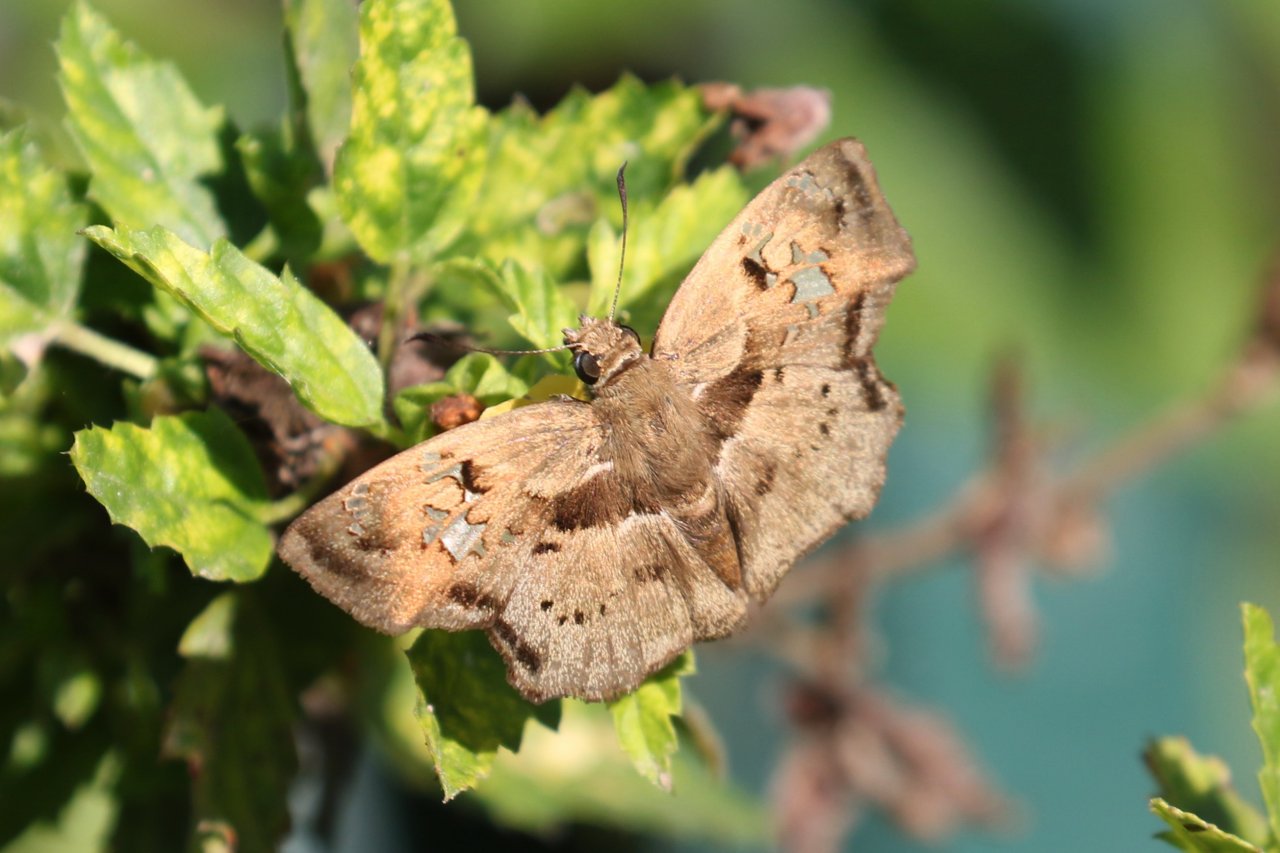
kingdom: Animalia
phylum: Arthropoda
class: Insecta
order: Lepidoptera
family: Hesperiidae
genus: Quadrus
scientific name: Quadrus lugubris
